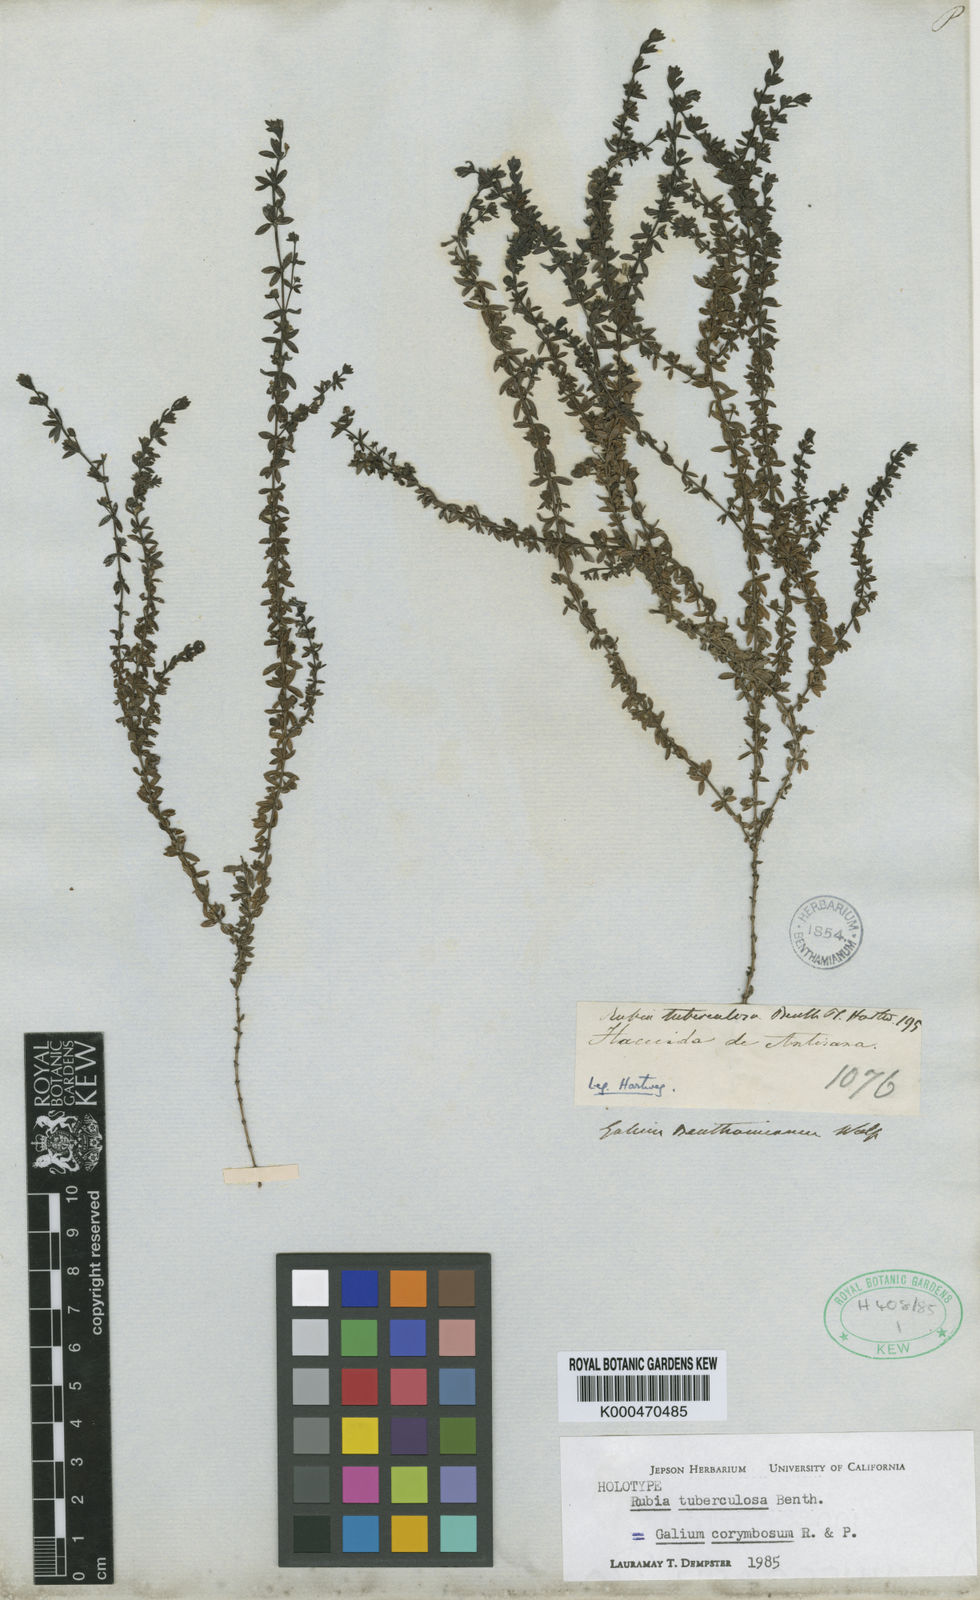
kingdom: Plantae
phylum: Tracheophyta
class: Magnoliopsida
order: Gentianales
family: Rubiaceae
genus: Galium
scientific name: Galium
